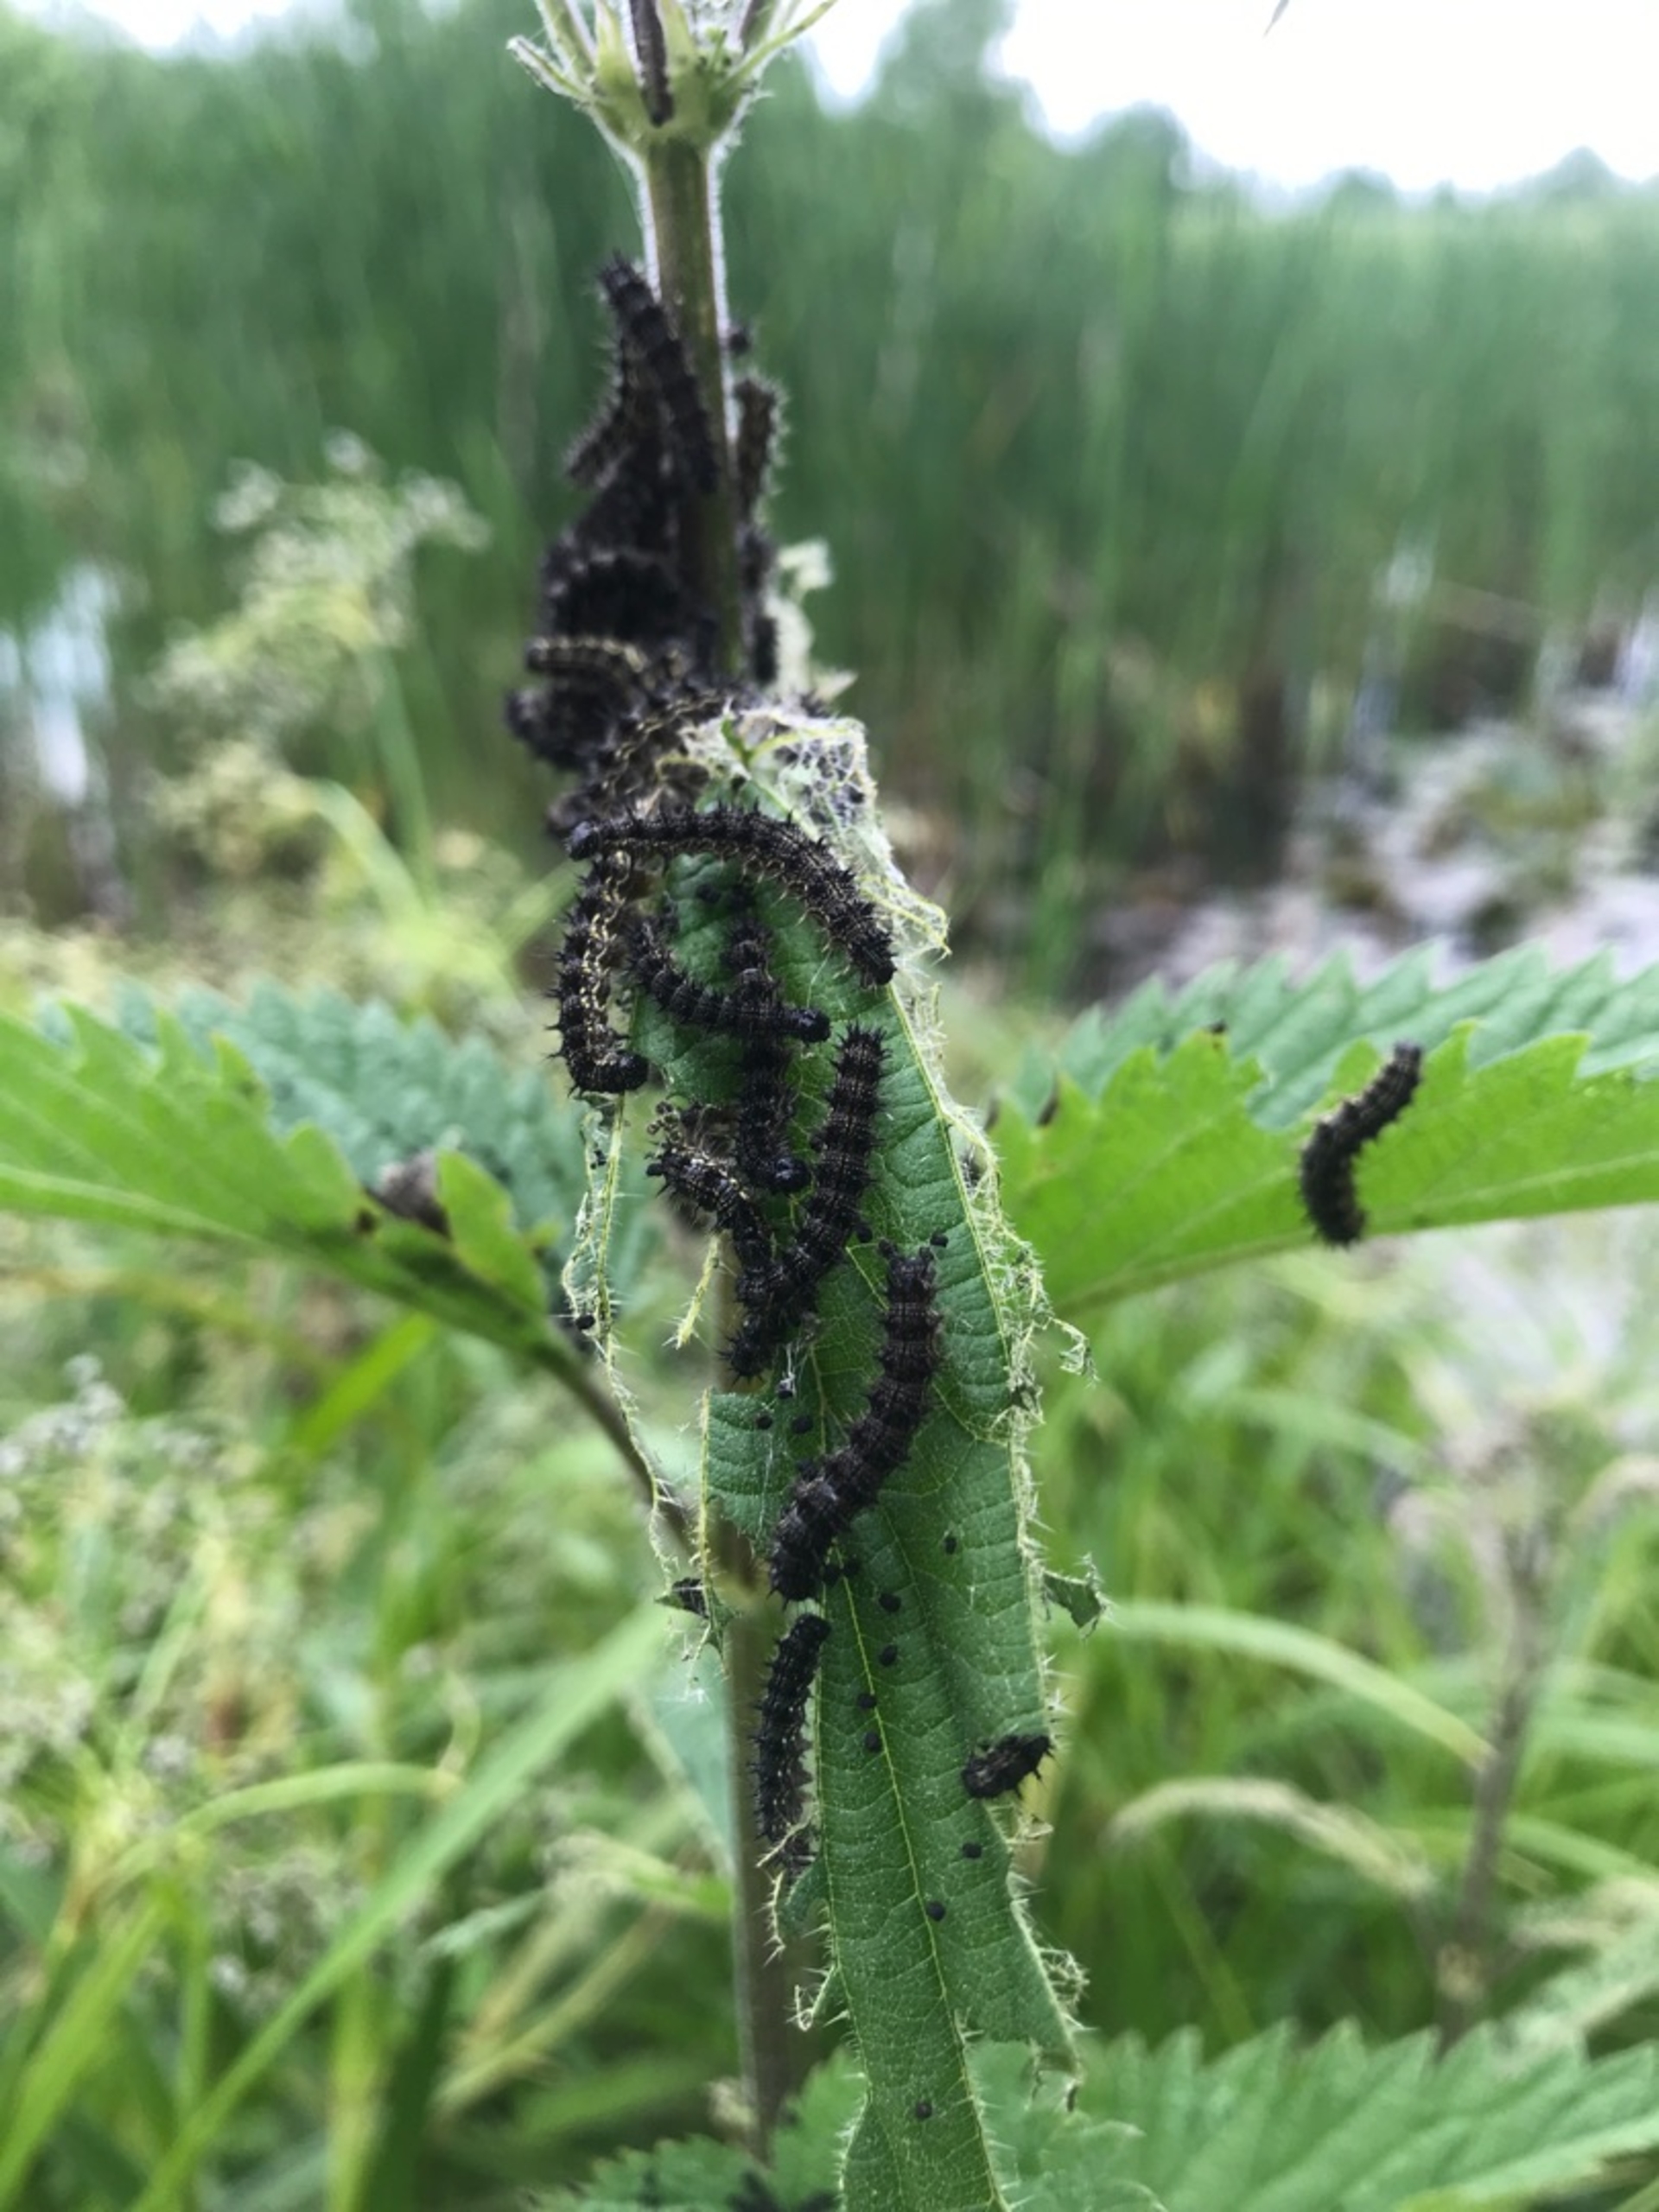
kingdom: Animalia
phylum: Arthropoda
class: Insecta
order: Lepidoptera
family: Nymphalidae
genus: Aglais
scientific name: Aglais urticae
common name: Nældens takvinge
